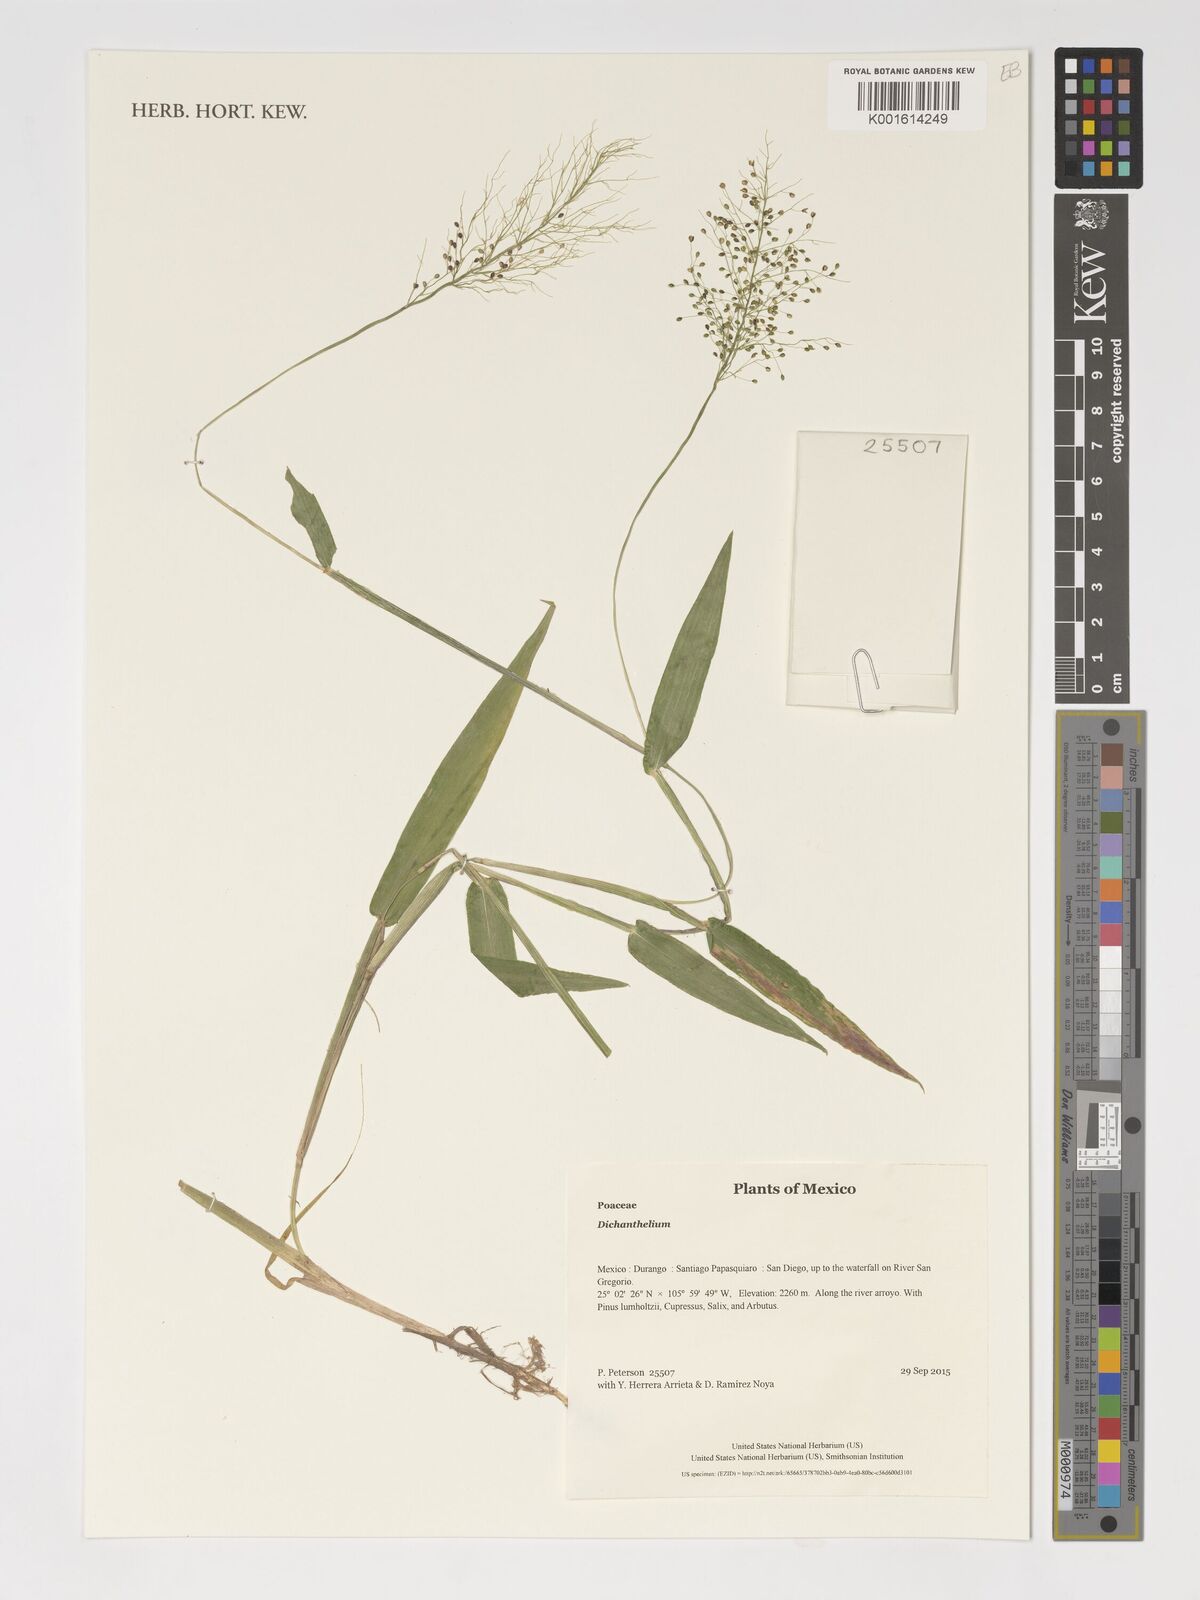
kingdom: Plantae
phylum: Tracheophyta
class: Liliopsida
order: Poales
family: Poaceae
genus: Dichanthelium
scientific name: Dichanthelium
